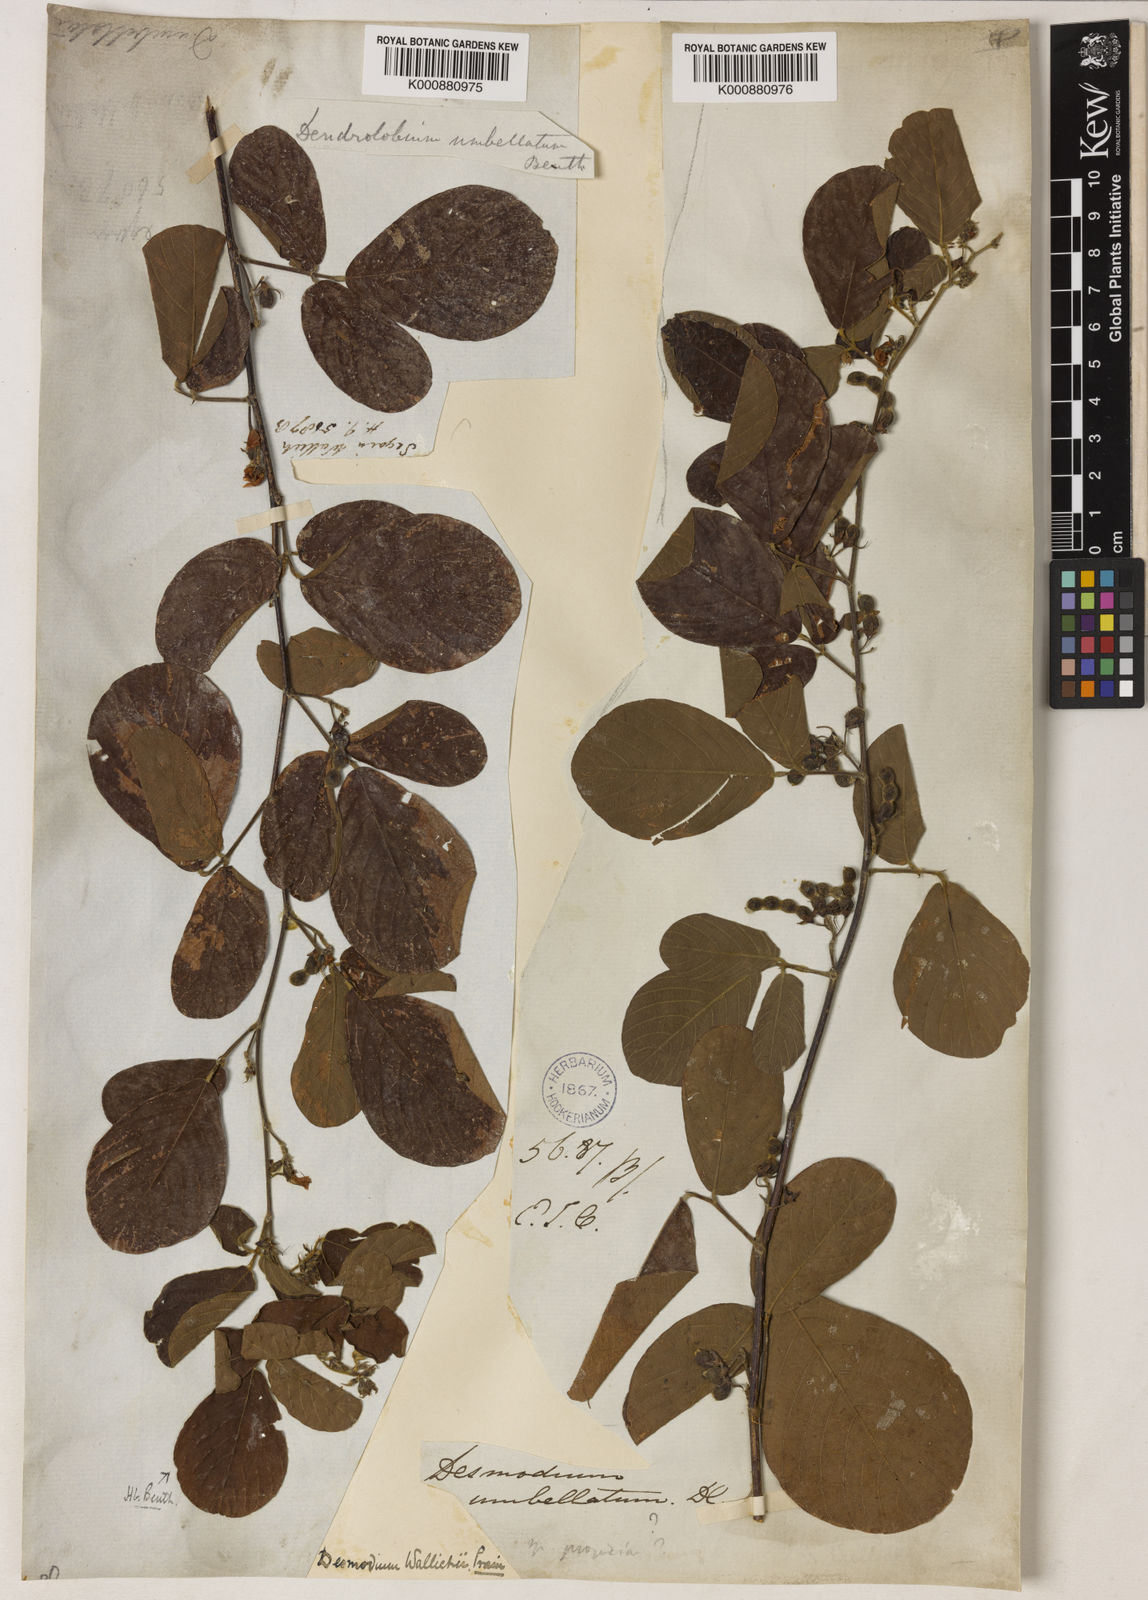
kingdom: Plantae
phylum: Tracheophyta
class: Magnoliopsida
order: Fabales
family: Fabaceae
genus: Dendrolobium
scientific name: Dendrolobium rugosum
